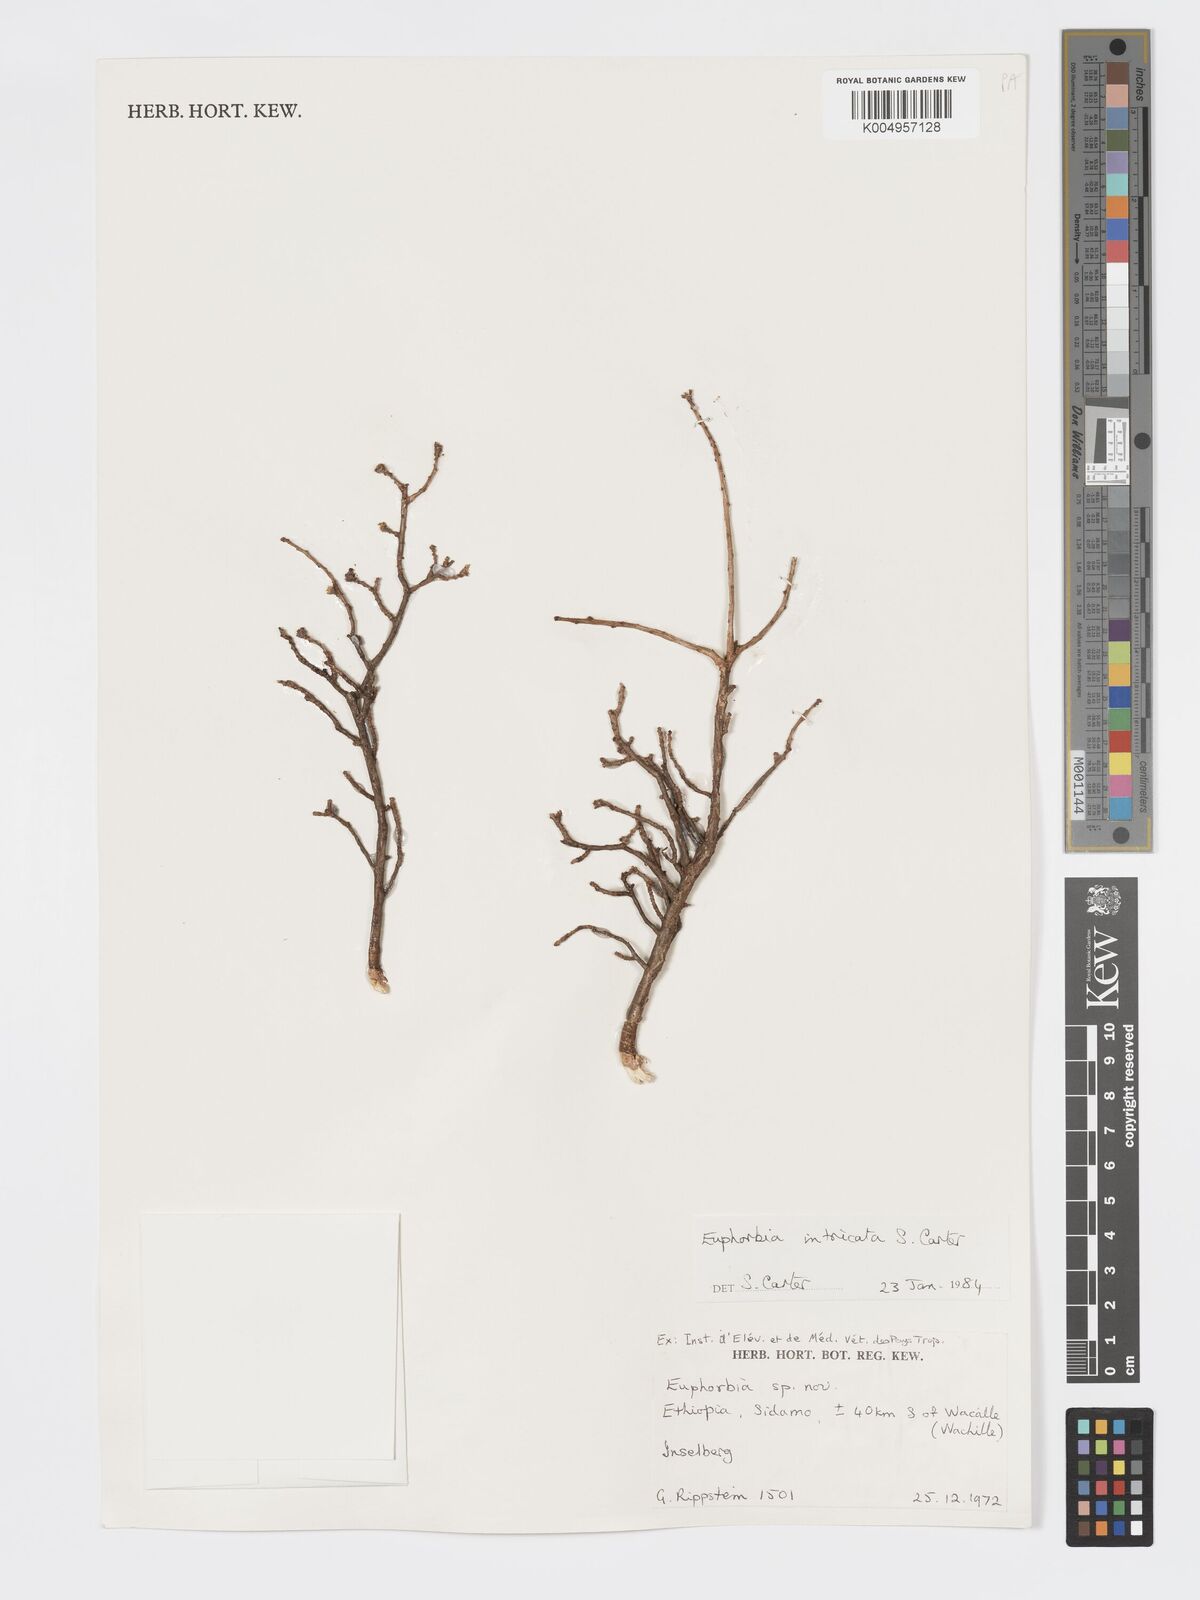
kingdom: Plantae
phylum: Tracheophyta
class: Magnoliopsida
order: Malpighiales
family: Euphorbiaceae
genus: Euphorbia
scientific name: Euphorbia intricata
